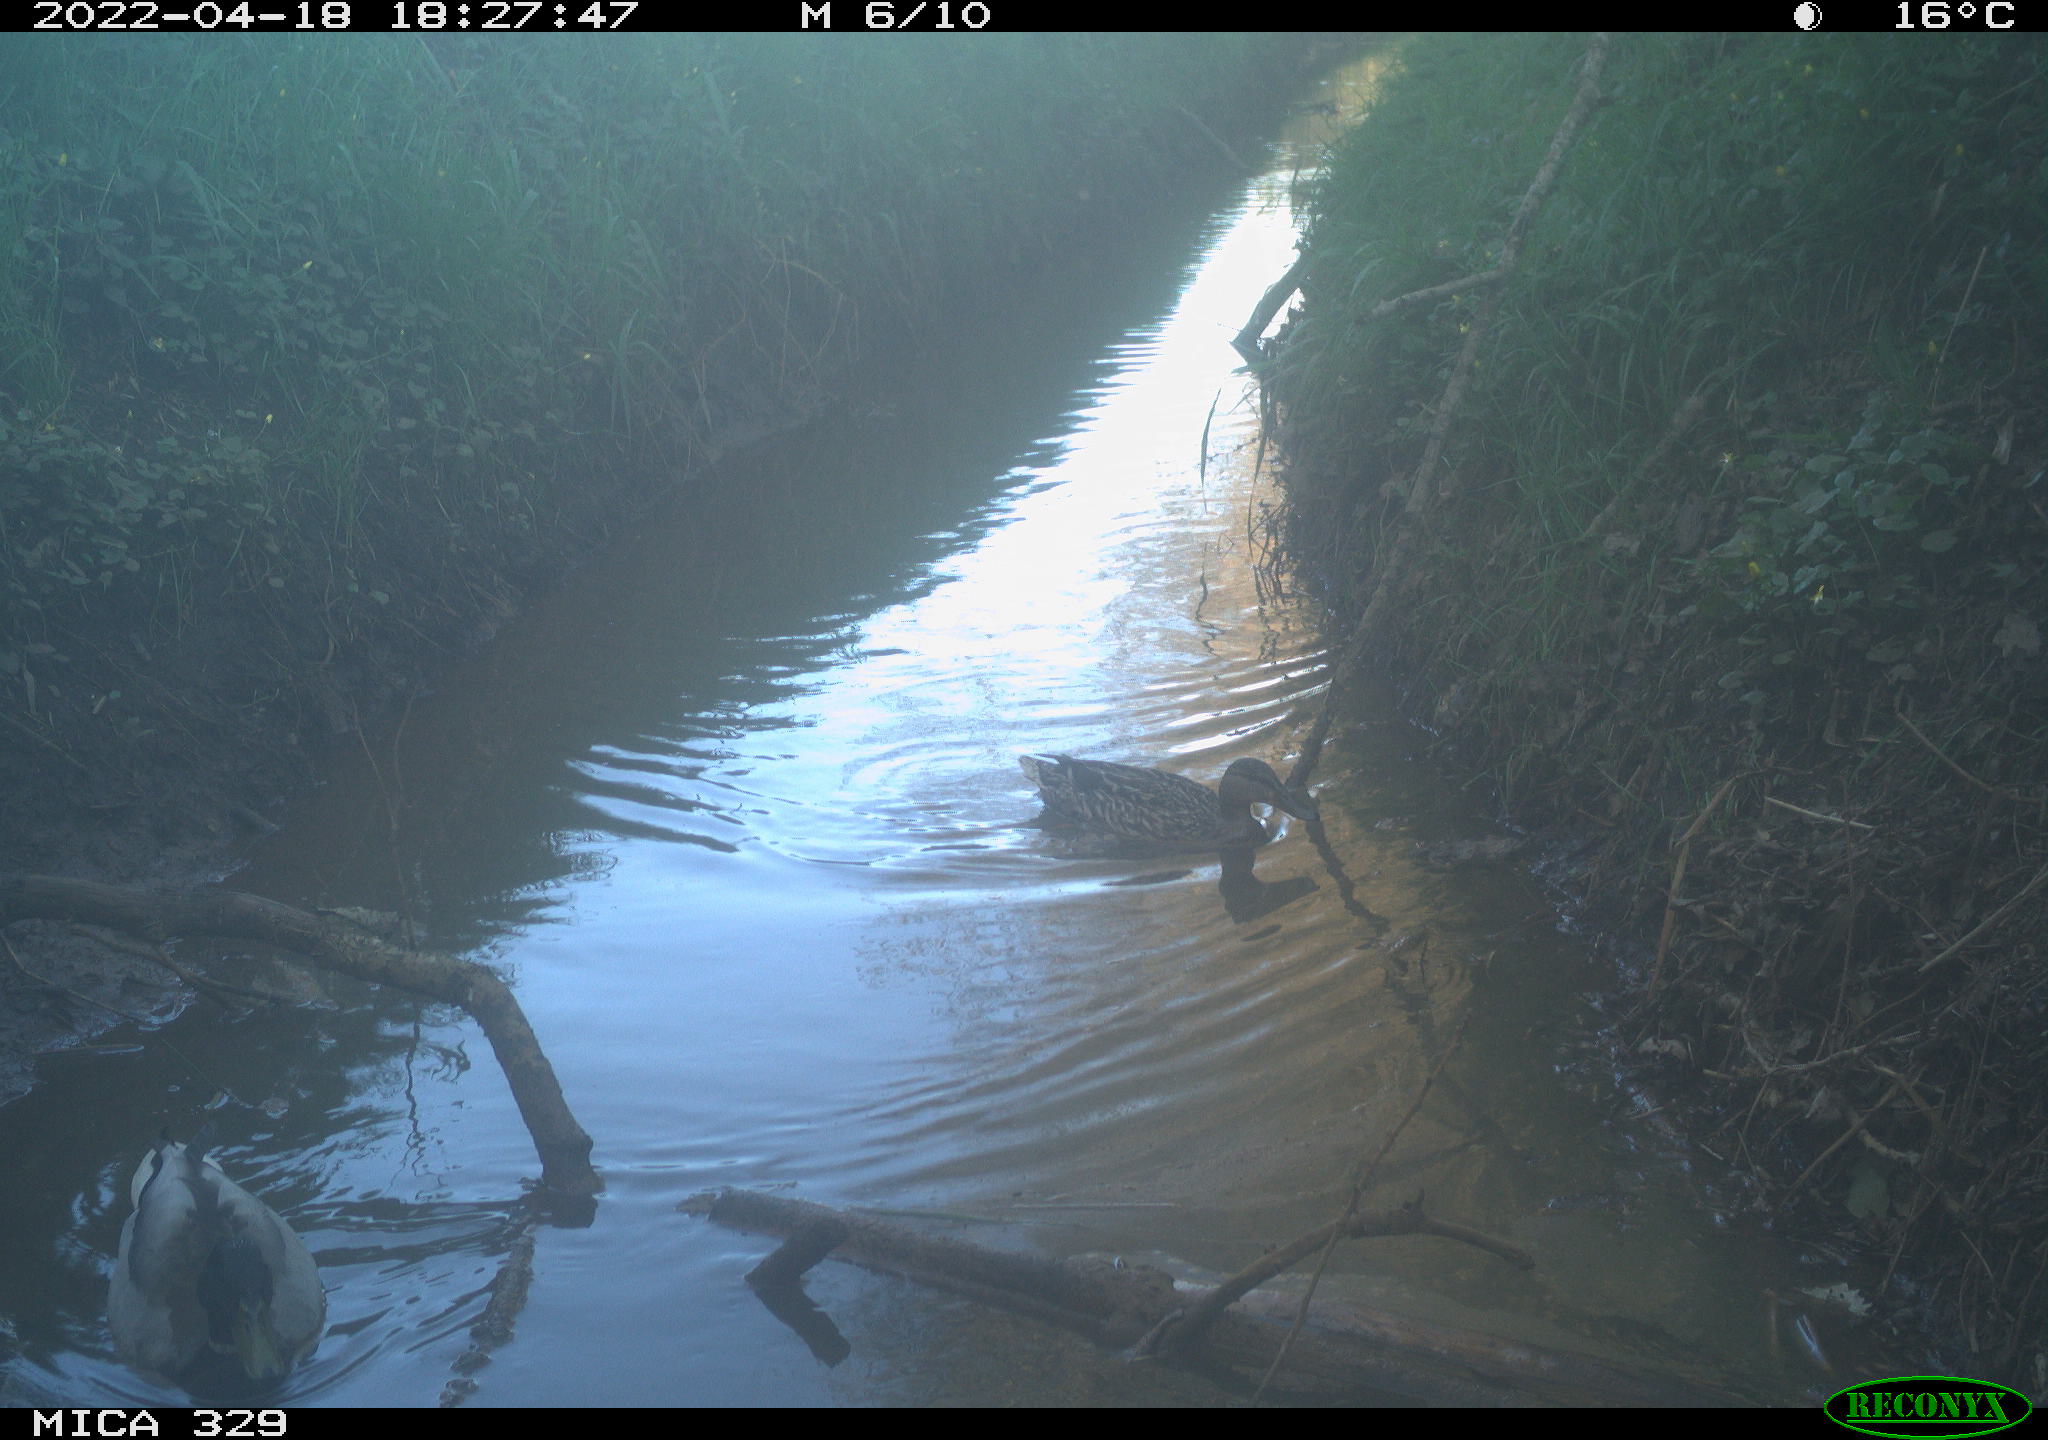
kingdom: Animalia
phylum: Chordata
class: Aves
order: Anseriformes
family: Anatidae
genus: Anas
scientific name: Anas platyrhynchos
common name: Mallard
